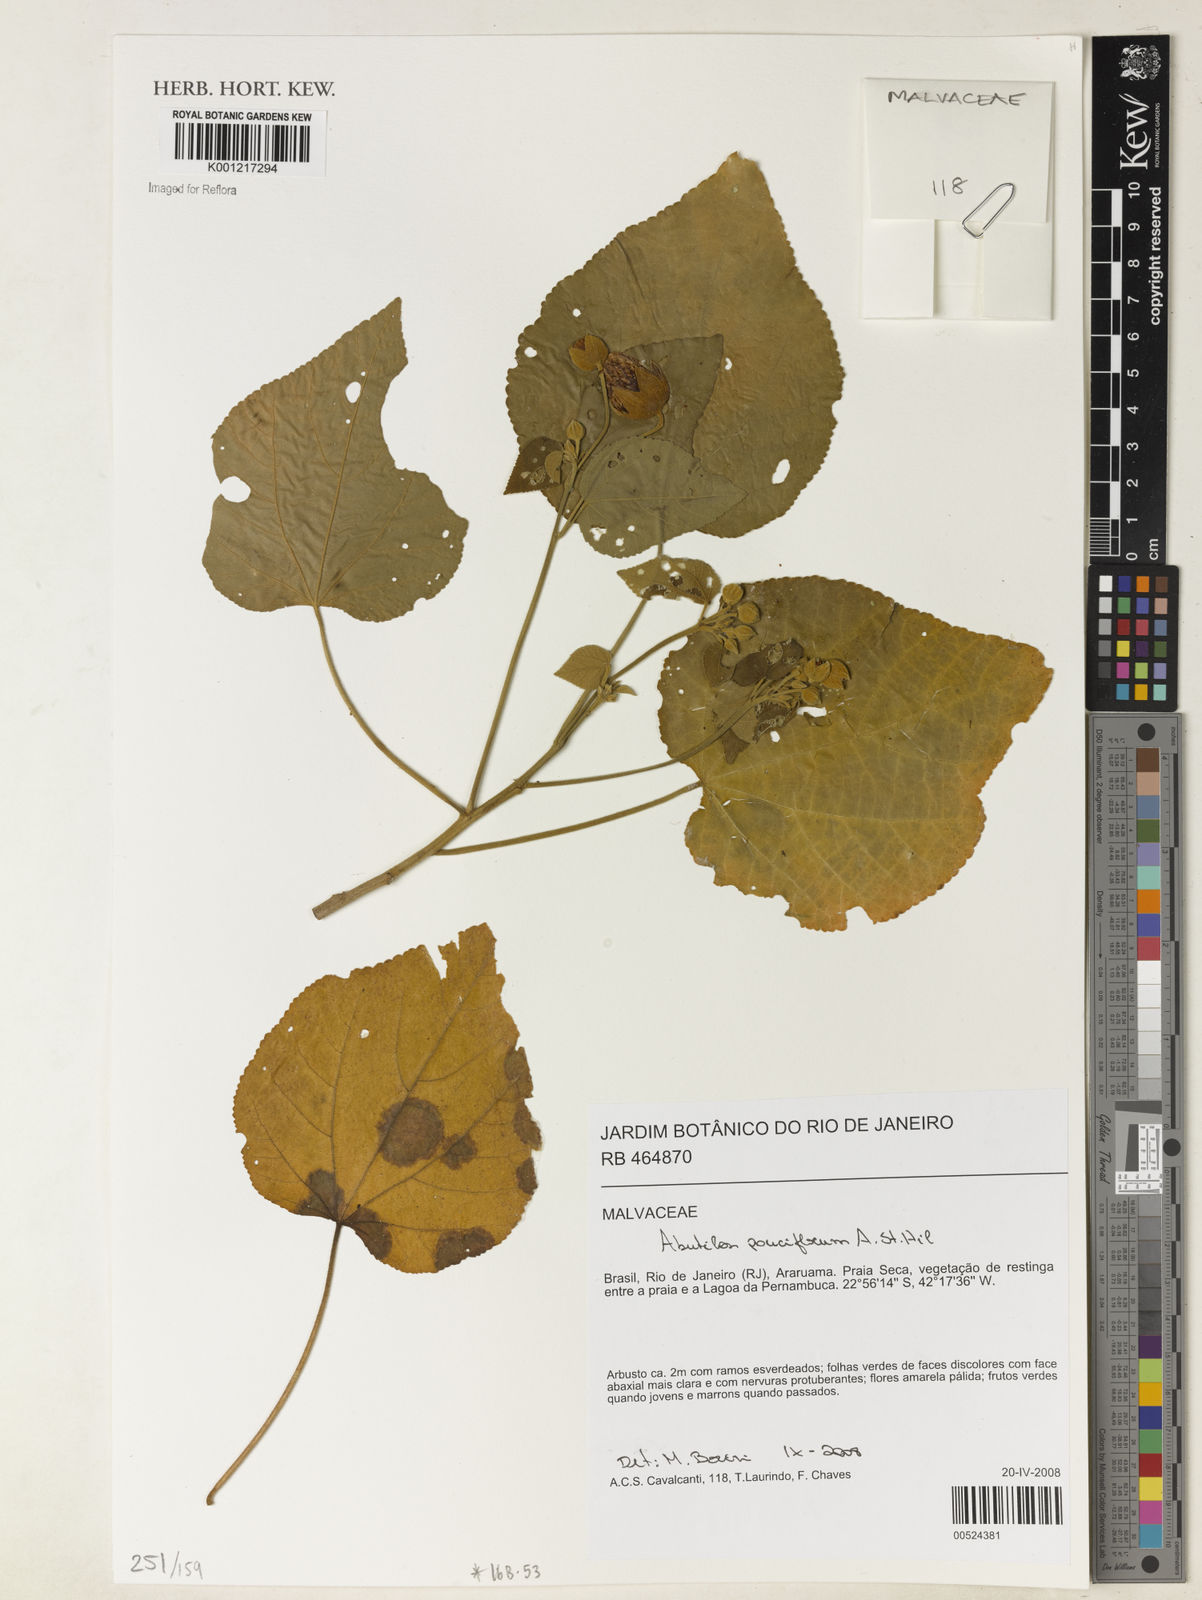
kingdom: Plantae
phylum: Tracheophyta
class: Magnoliopsida
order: Malvales
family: Malvaceae
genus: Callianthe
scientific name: Callianthe pauciflora
